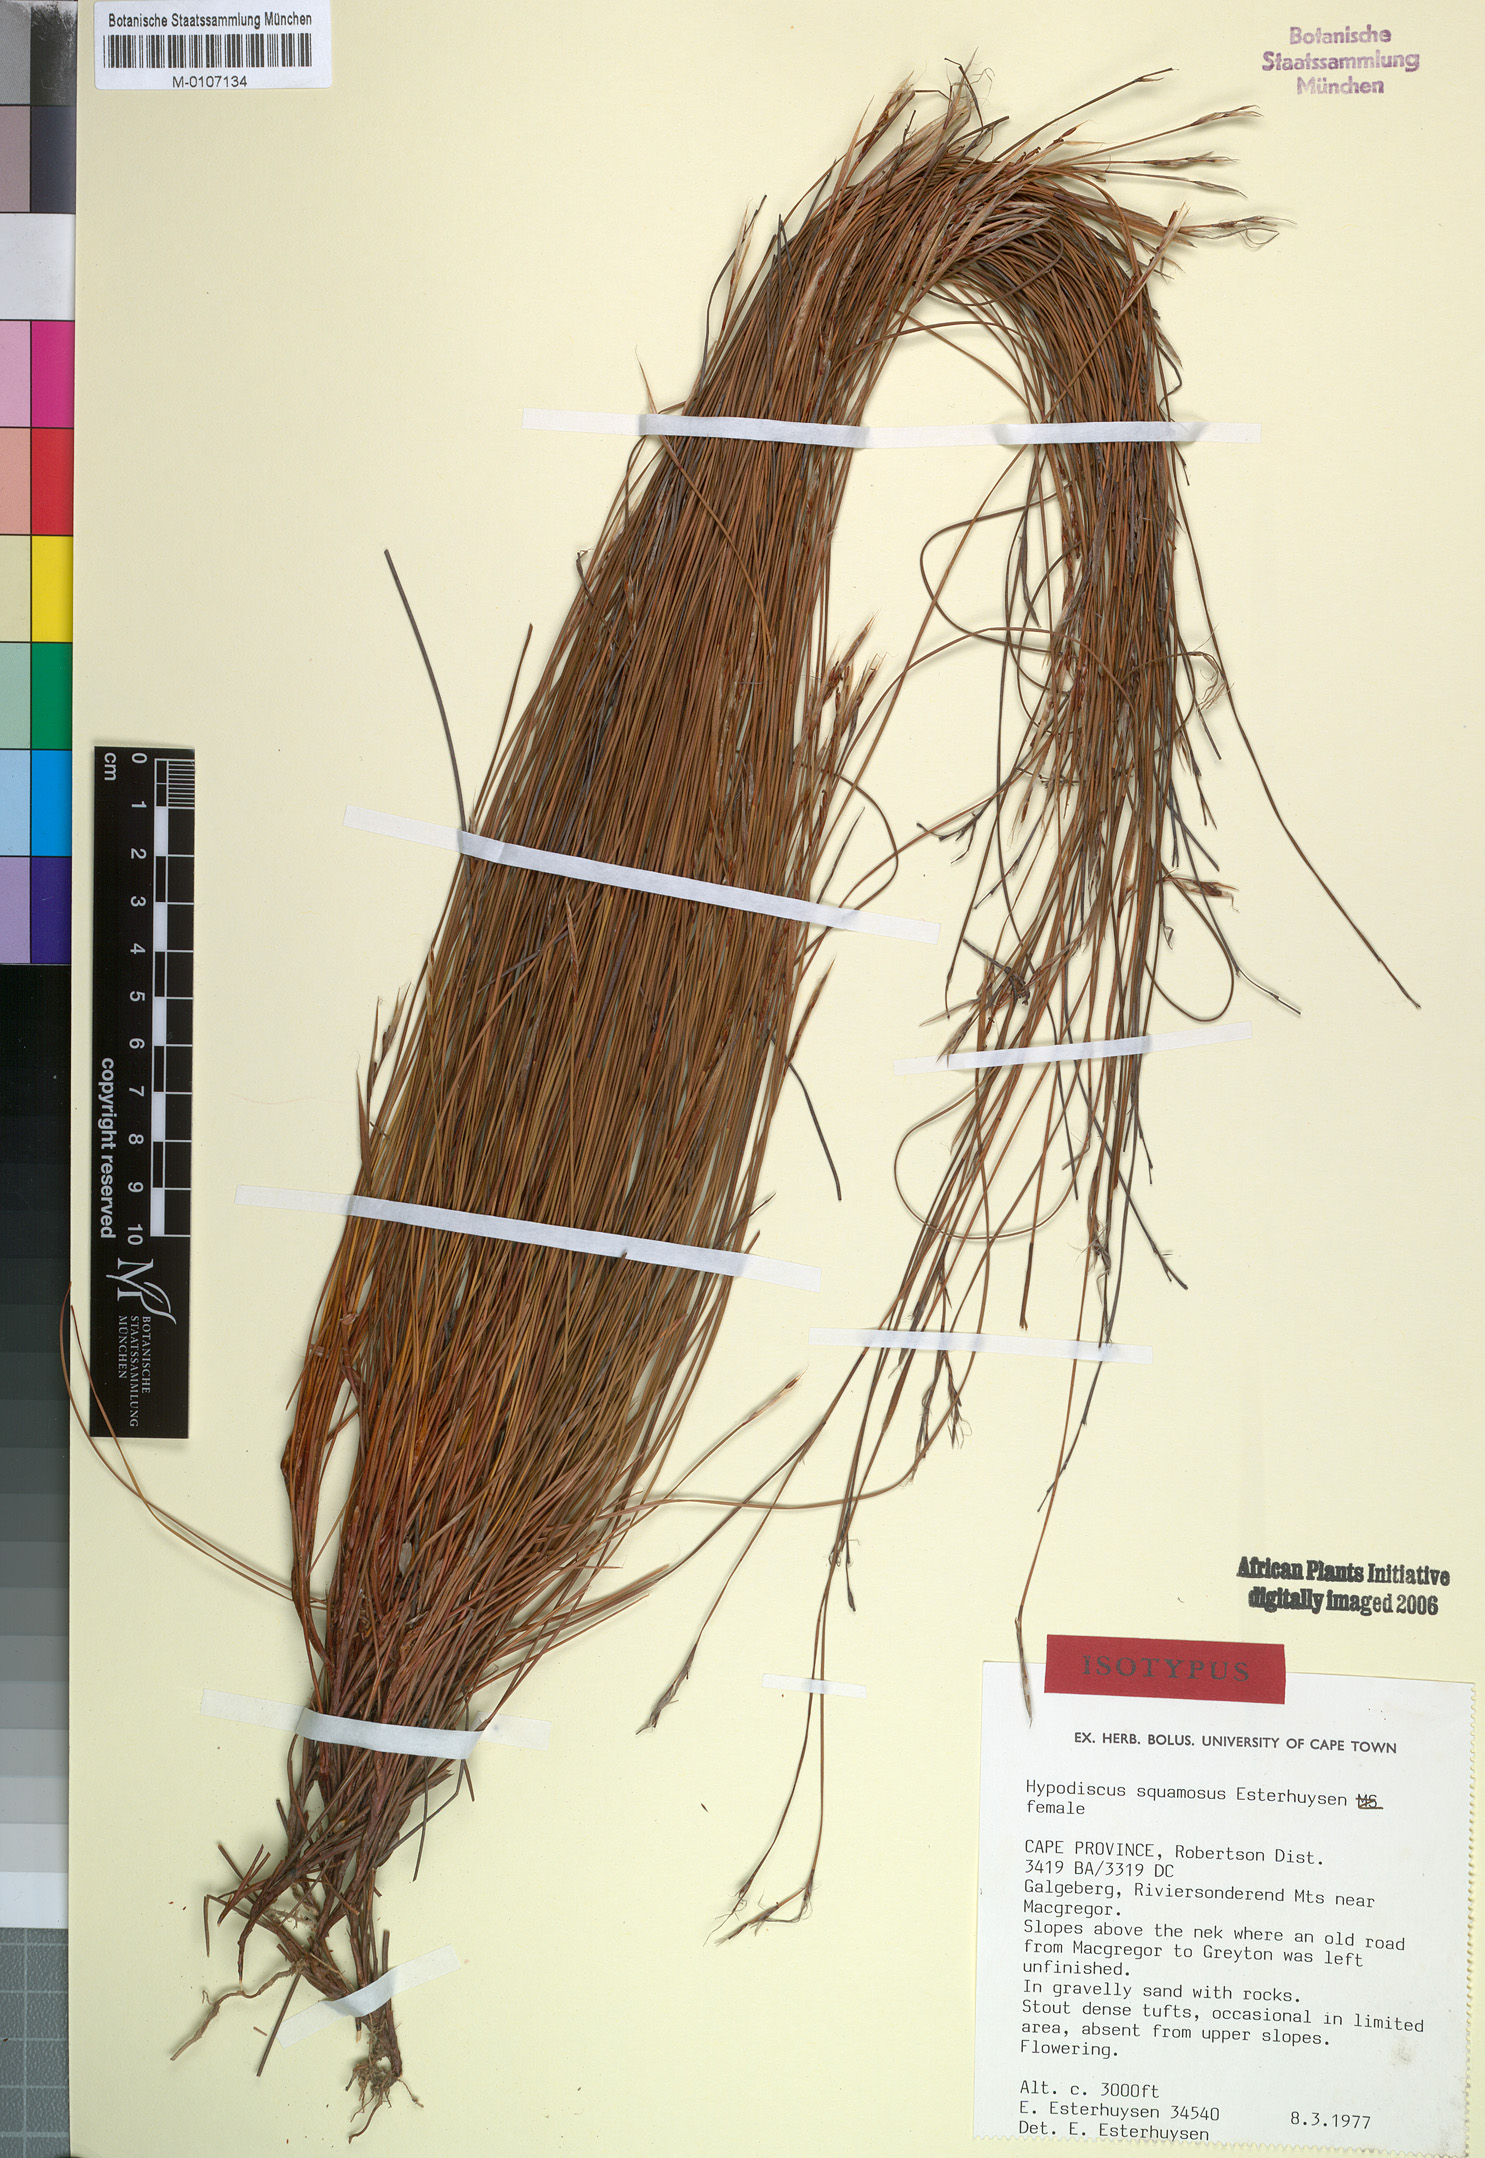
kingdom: Plantae
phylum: Tracheophyta
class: Liliopsida
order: Poales
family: Restionaceae
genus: Hypodiscus
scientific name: Hypodiscus squamosus
